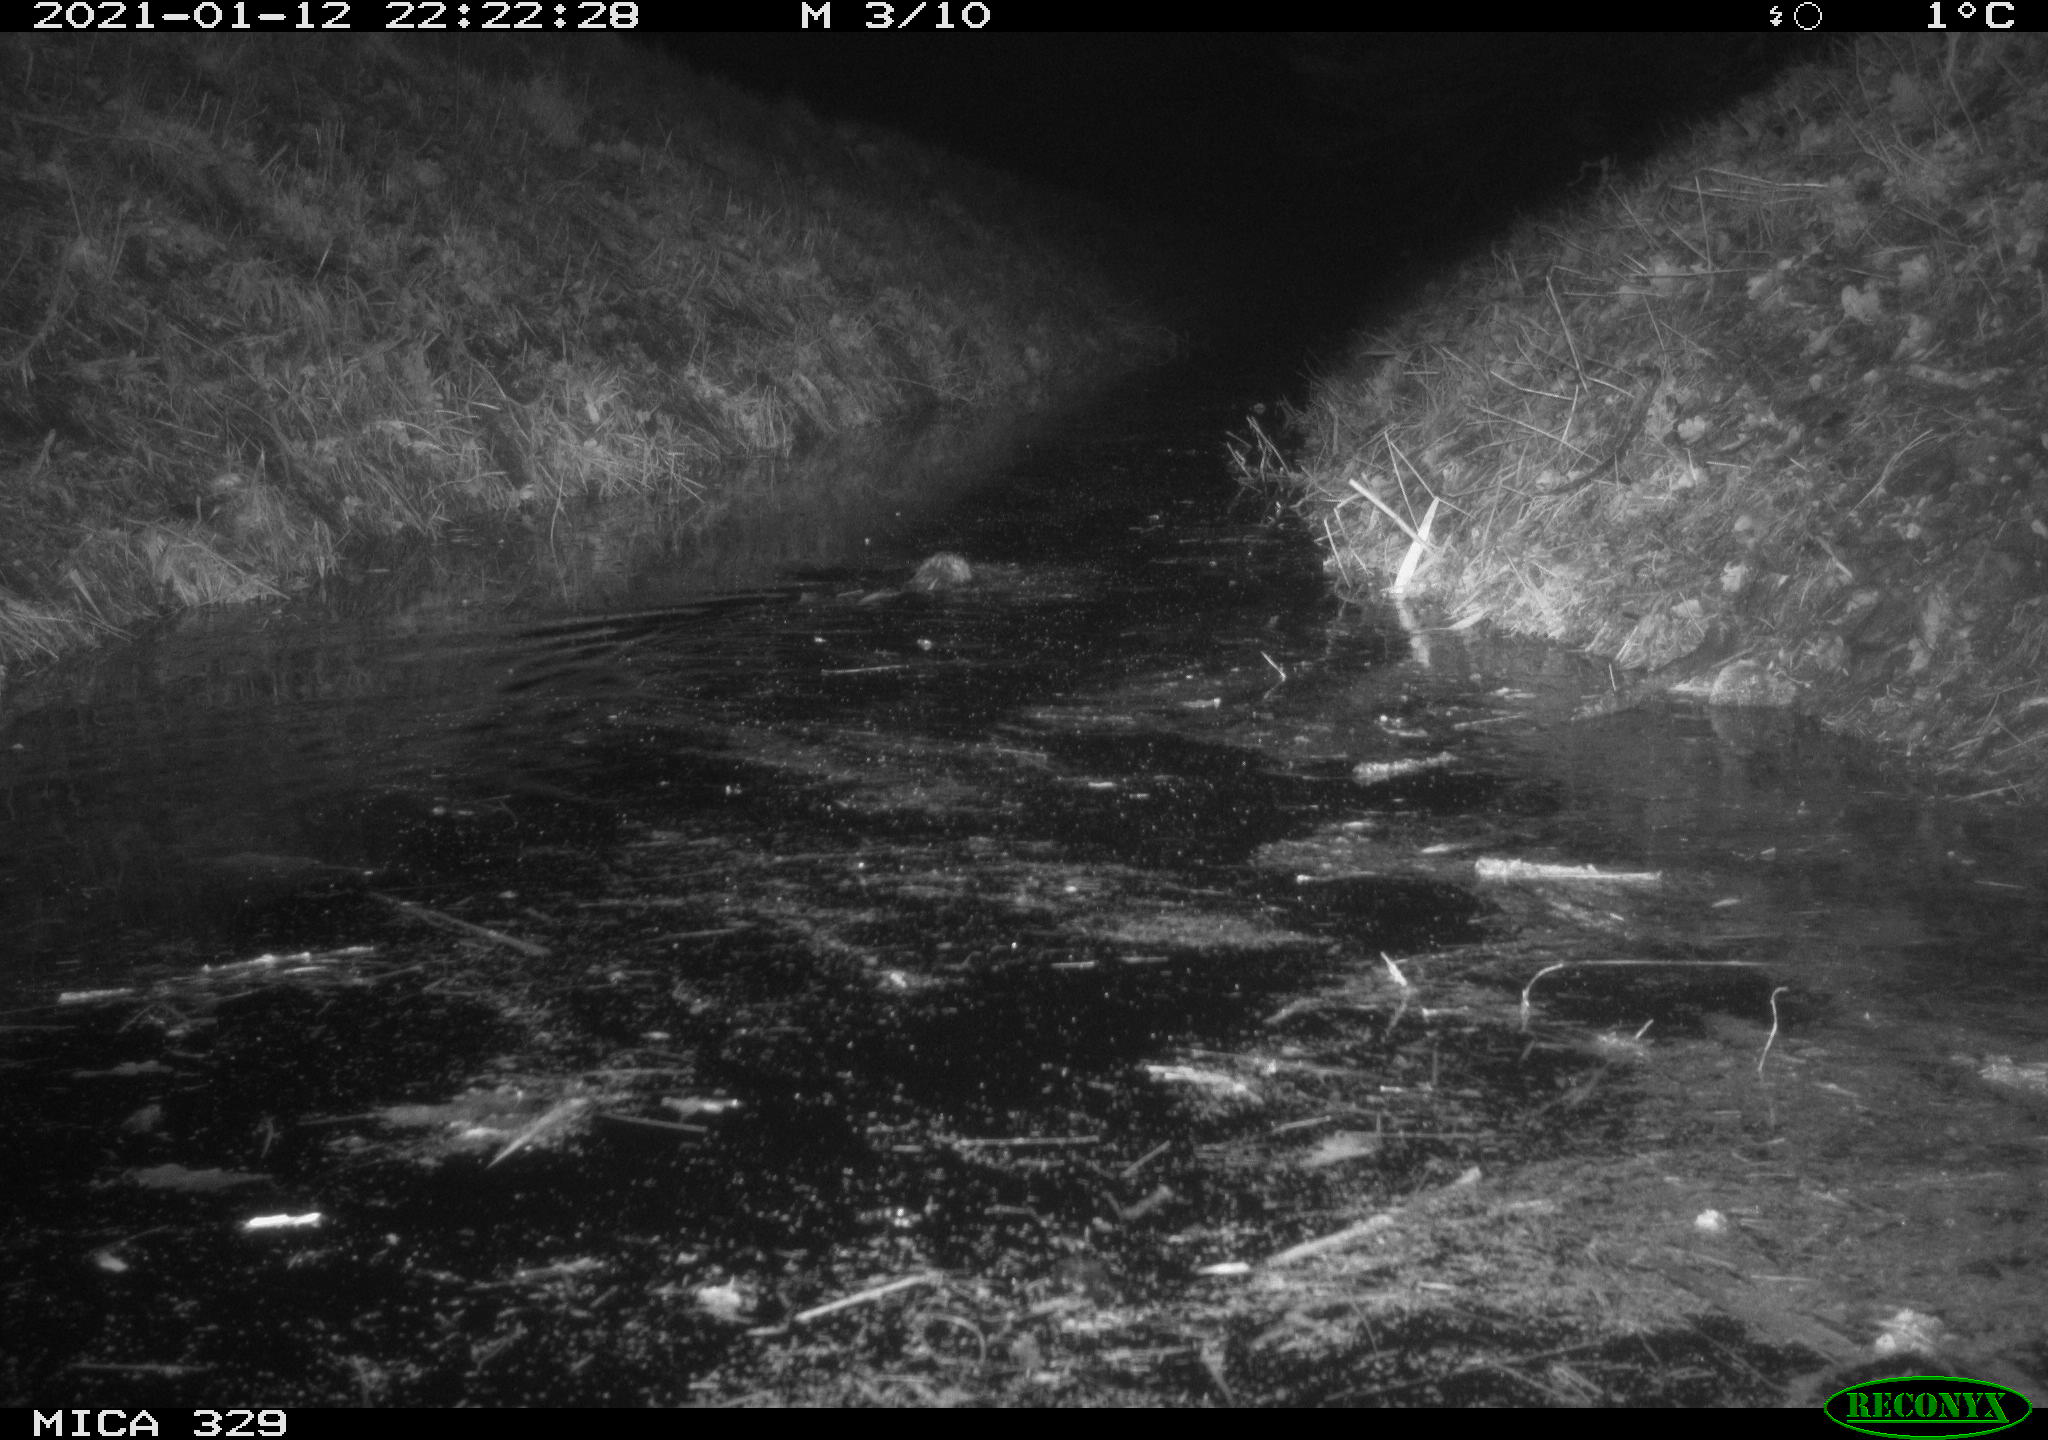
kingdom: Animalia
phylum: Chordata
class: Mammalia
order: Rodentia
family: Cricetidae
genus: Ondatra
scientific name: Ondatra zibethicus
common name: Muskrat
